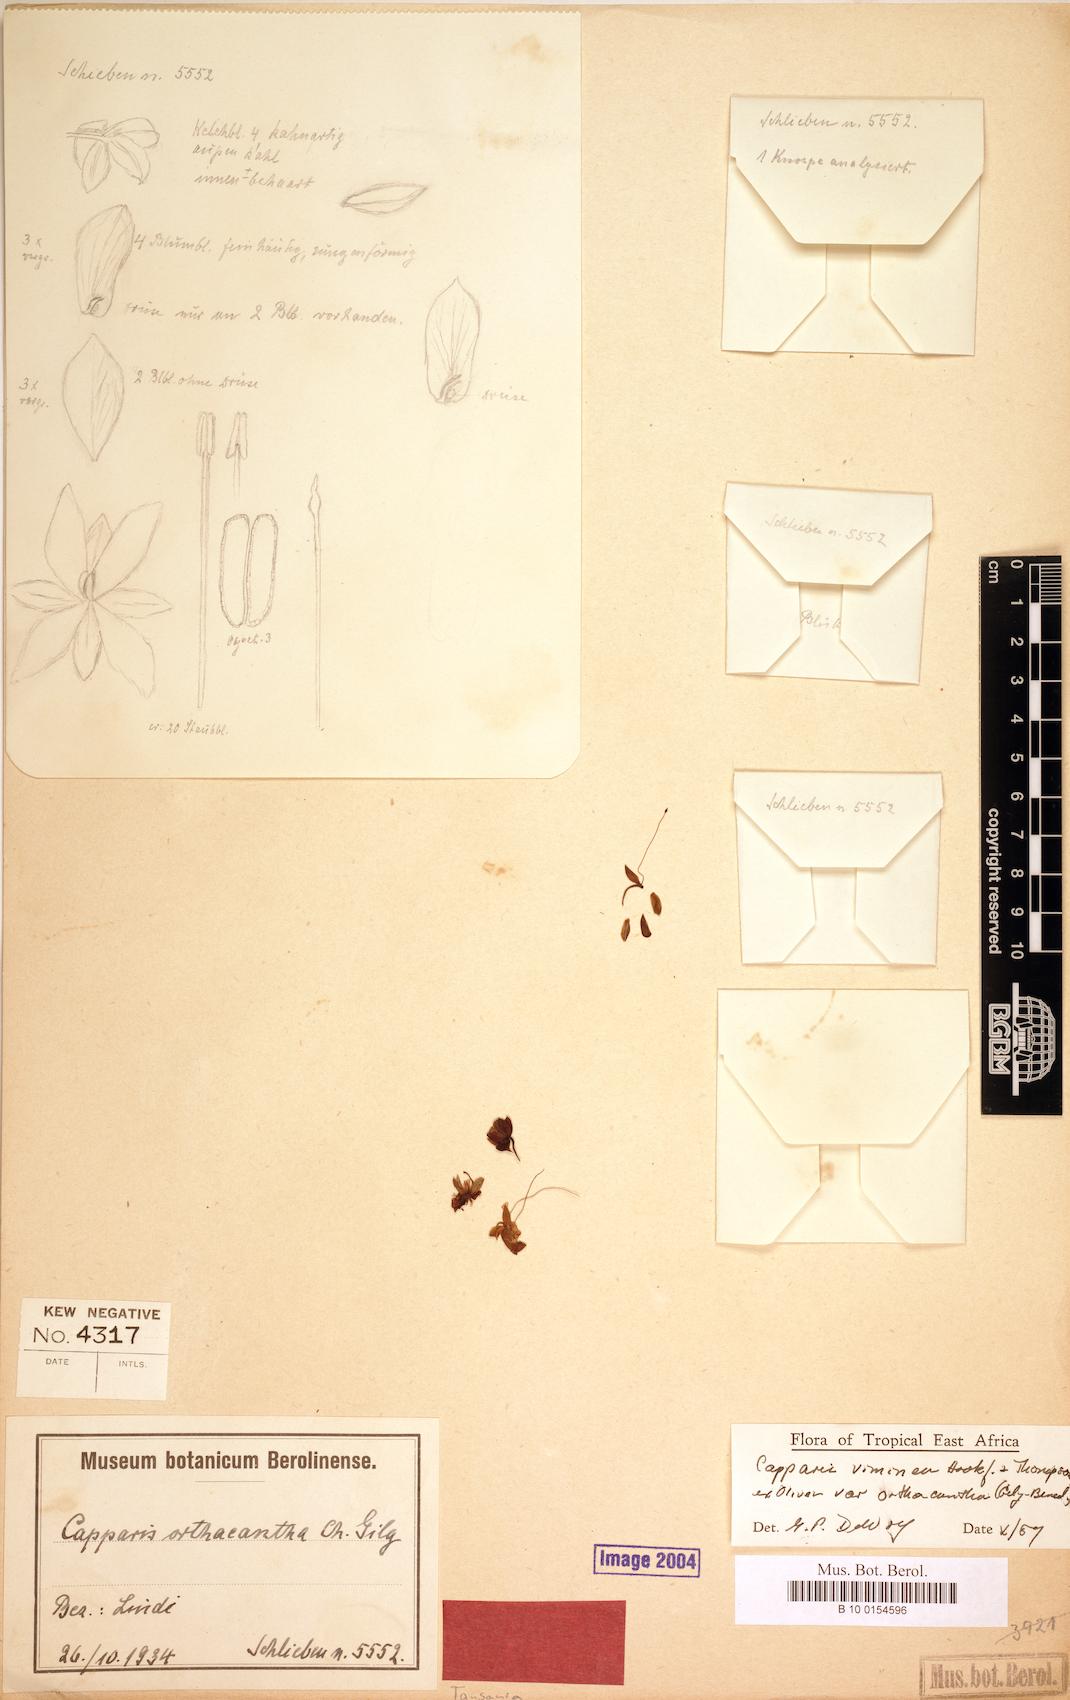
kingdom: Plantae
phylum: Tracheophyta
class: Magnoliopsida
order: Brassicales
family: Capparaceae
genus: Capparis
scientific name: Capparis viminea
